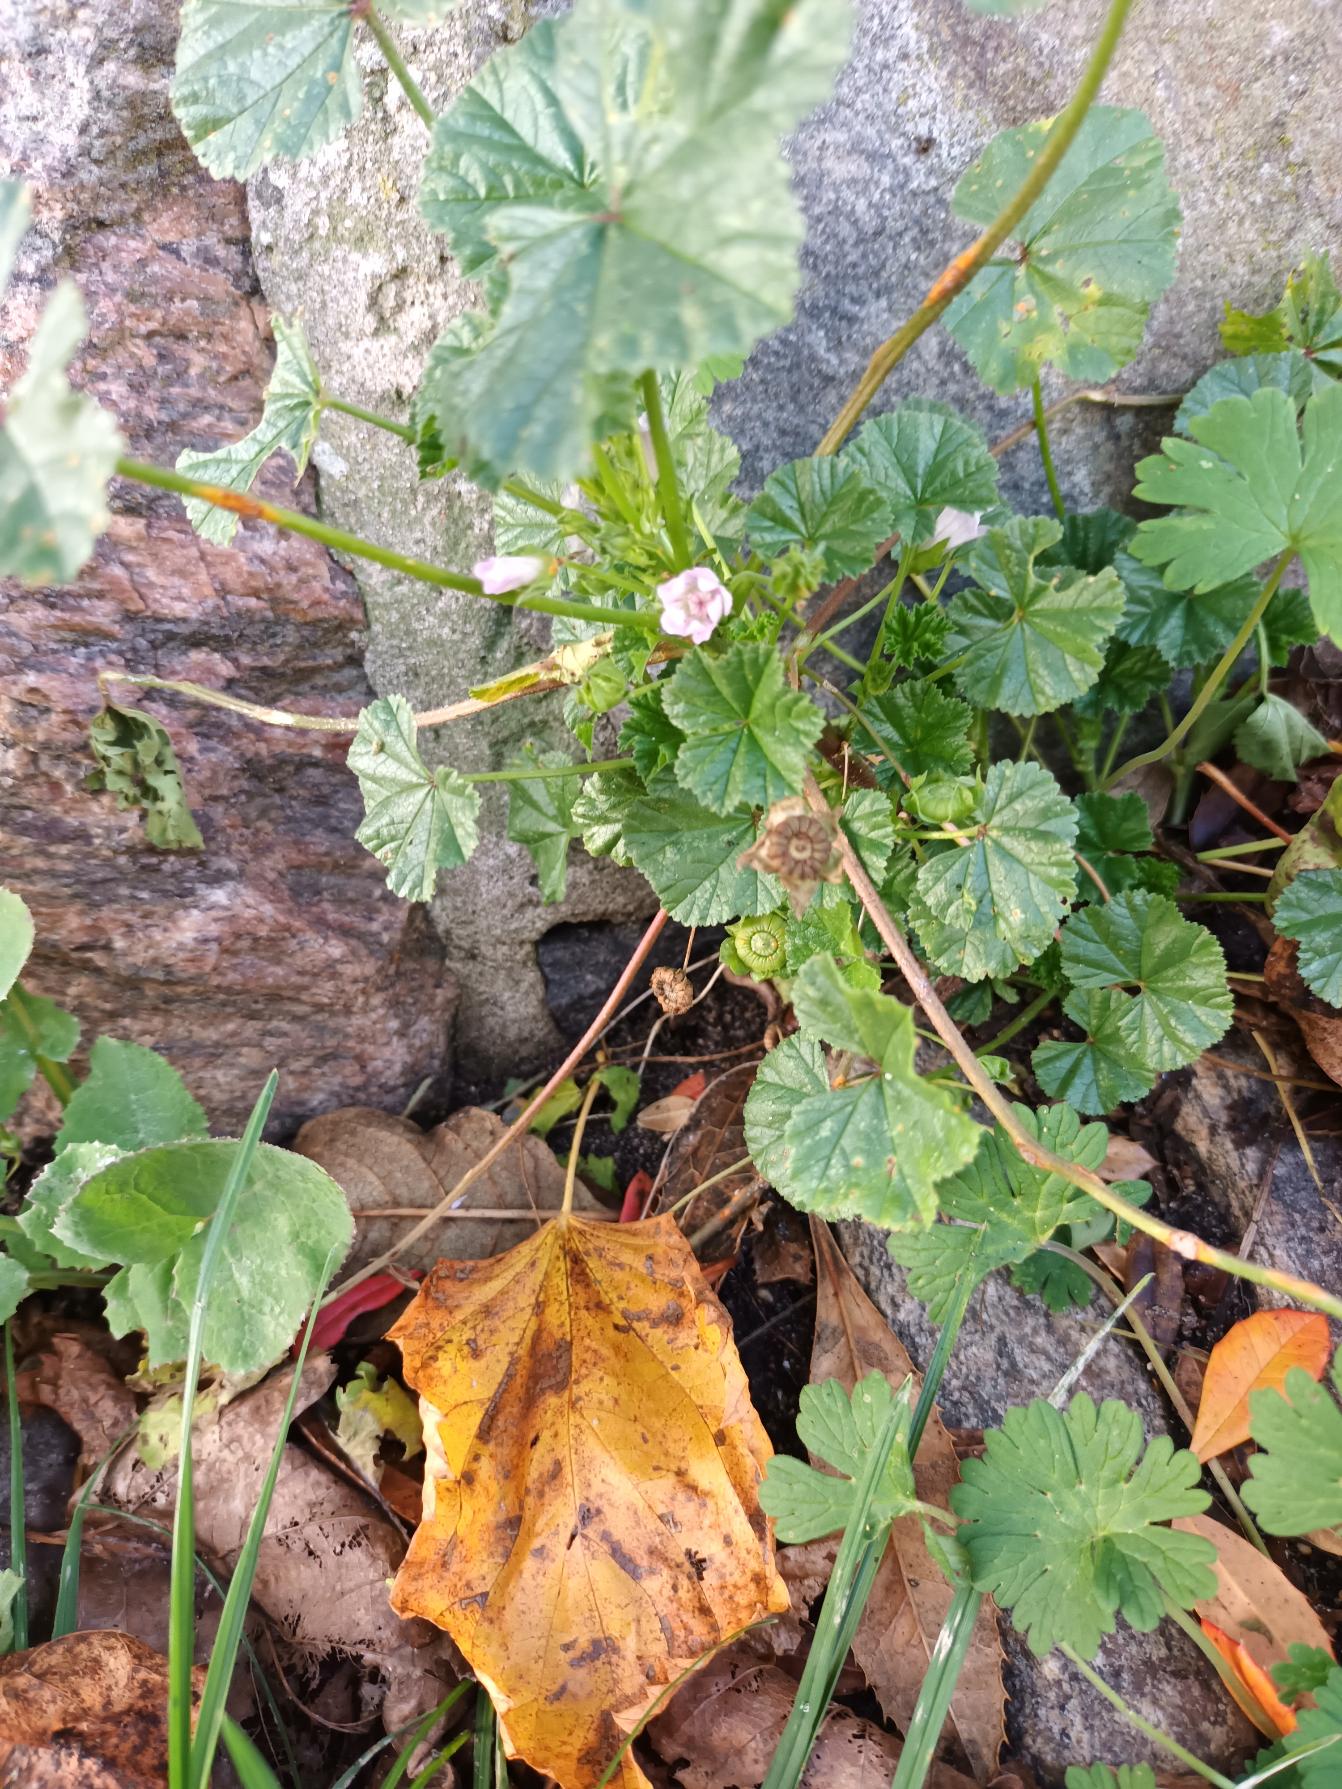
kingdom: Plantae
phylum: Tracheophyta
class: Magnoliopsida
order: Malvales
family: Malvaceae
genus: Malva
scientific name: Malva neglecta
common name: Rundbladet katost
